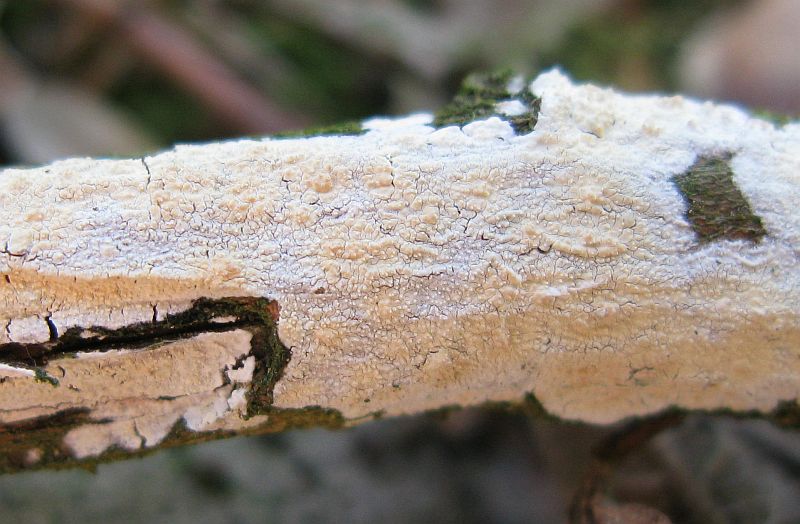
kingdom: Fungi
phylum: Basidiomycota
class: Agaricomycetes
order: Corticiales
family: Corticiaceae
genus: Lyomyces
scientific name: Lyomyces crustosus
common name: vortet hyldehinde
